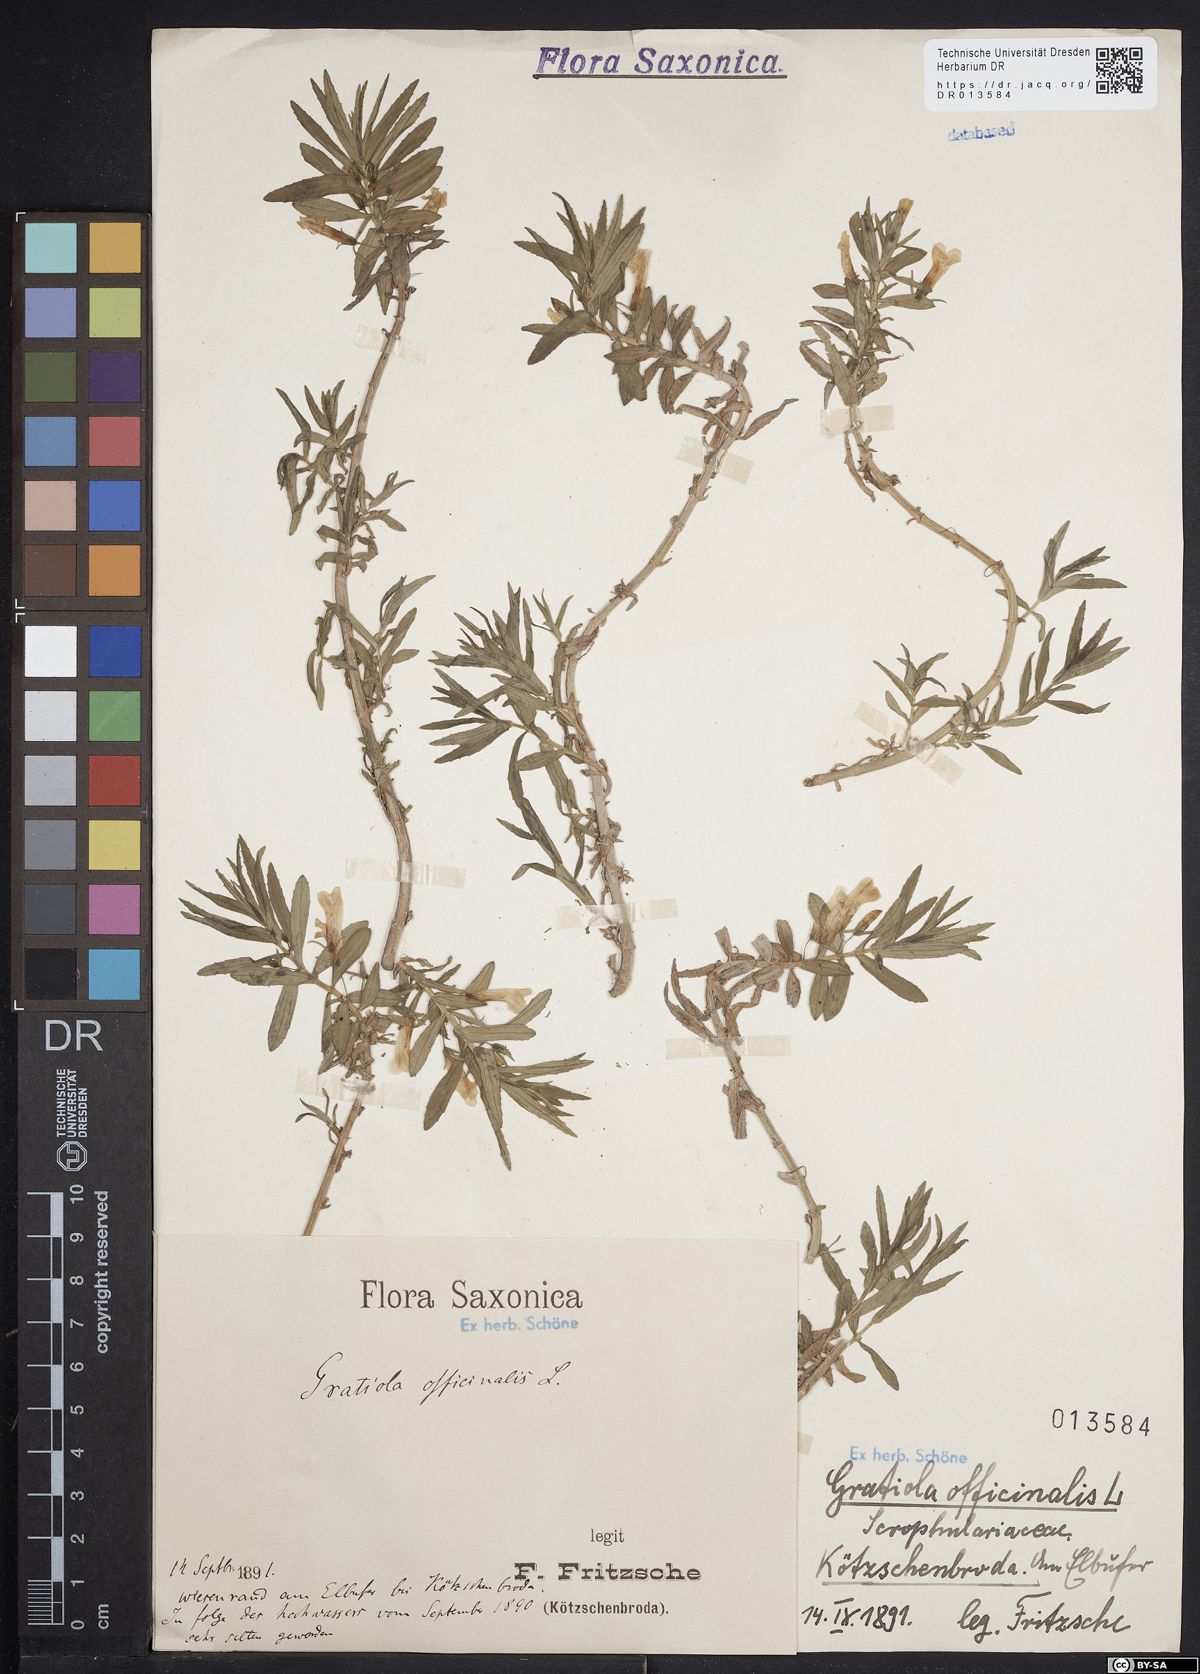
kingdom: Plantae
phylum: Tracheophyta
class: Magnoliopsida
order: Lamiales
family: Plantaginaceae
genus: Gratiola
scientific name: Gratiola officinalis
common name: Gratiola
